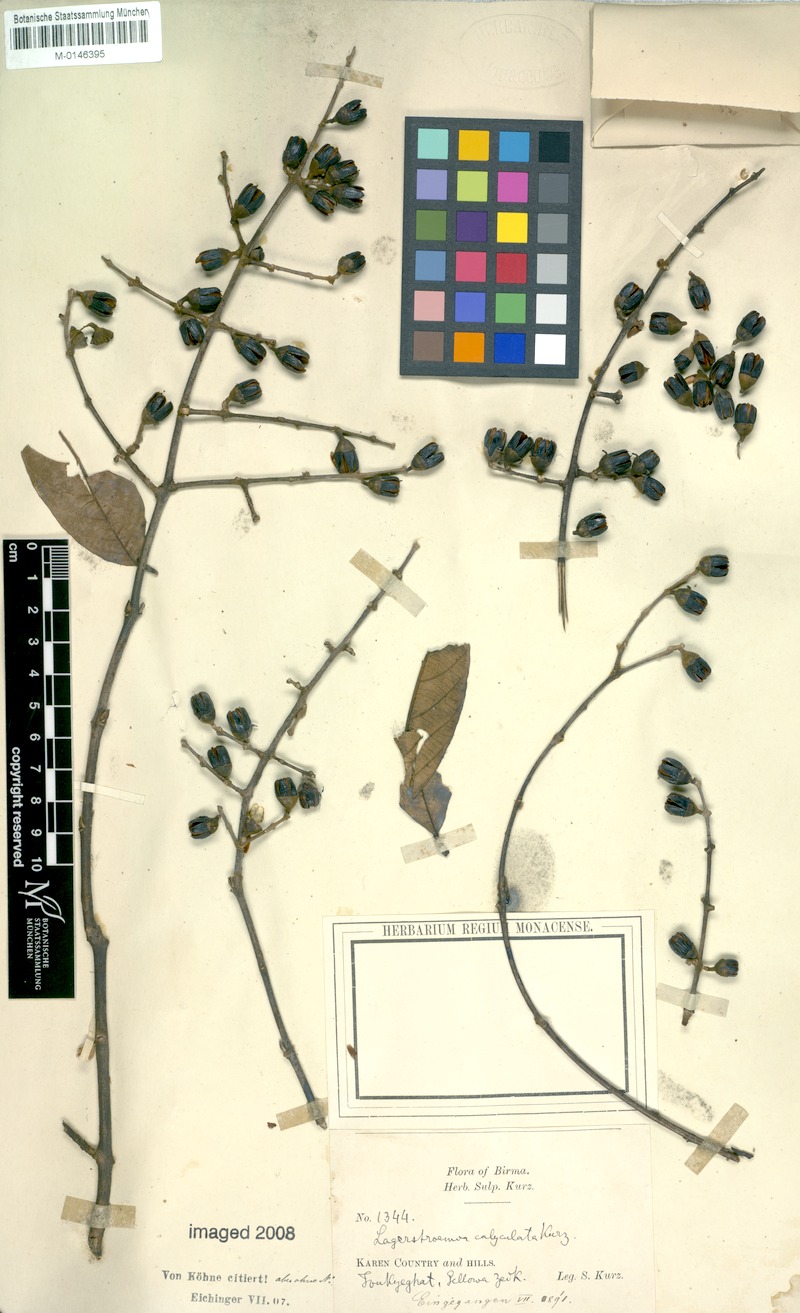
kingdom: Plantae
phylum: Tracheophyta
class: Magnoliopsida
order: Myrtales
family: Lythraceae
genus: Lagerstroemia
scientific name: Lagerstroemia calyculata
